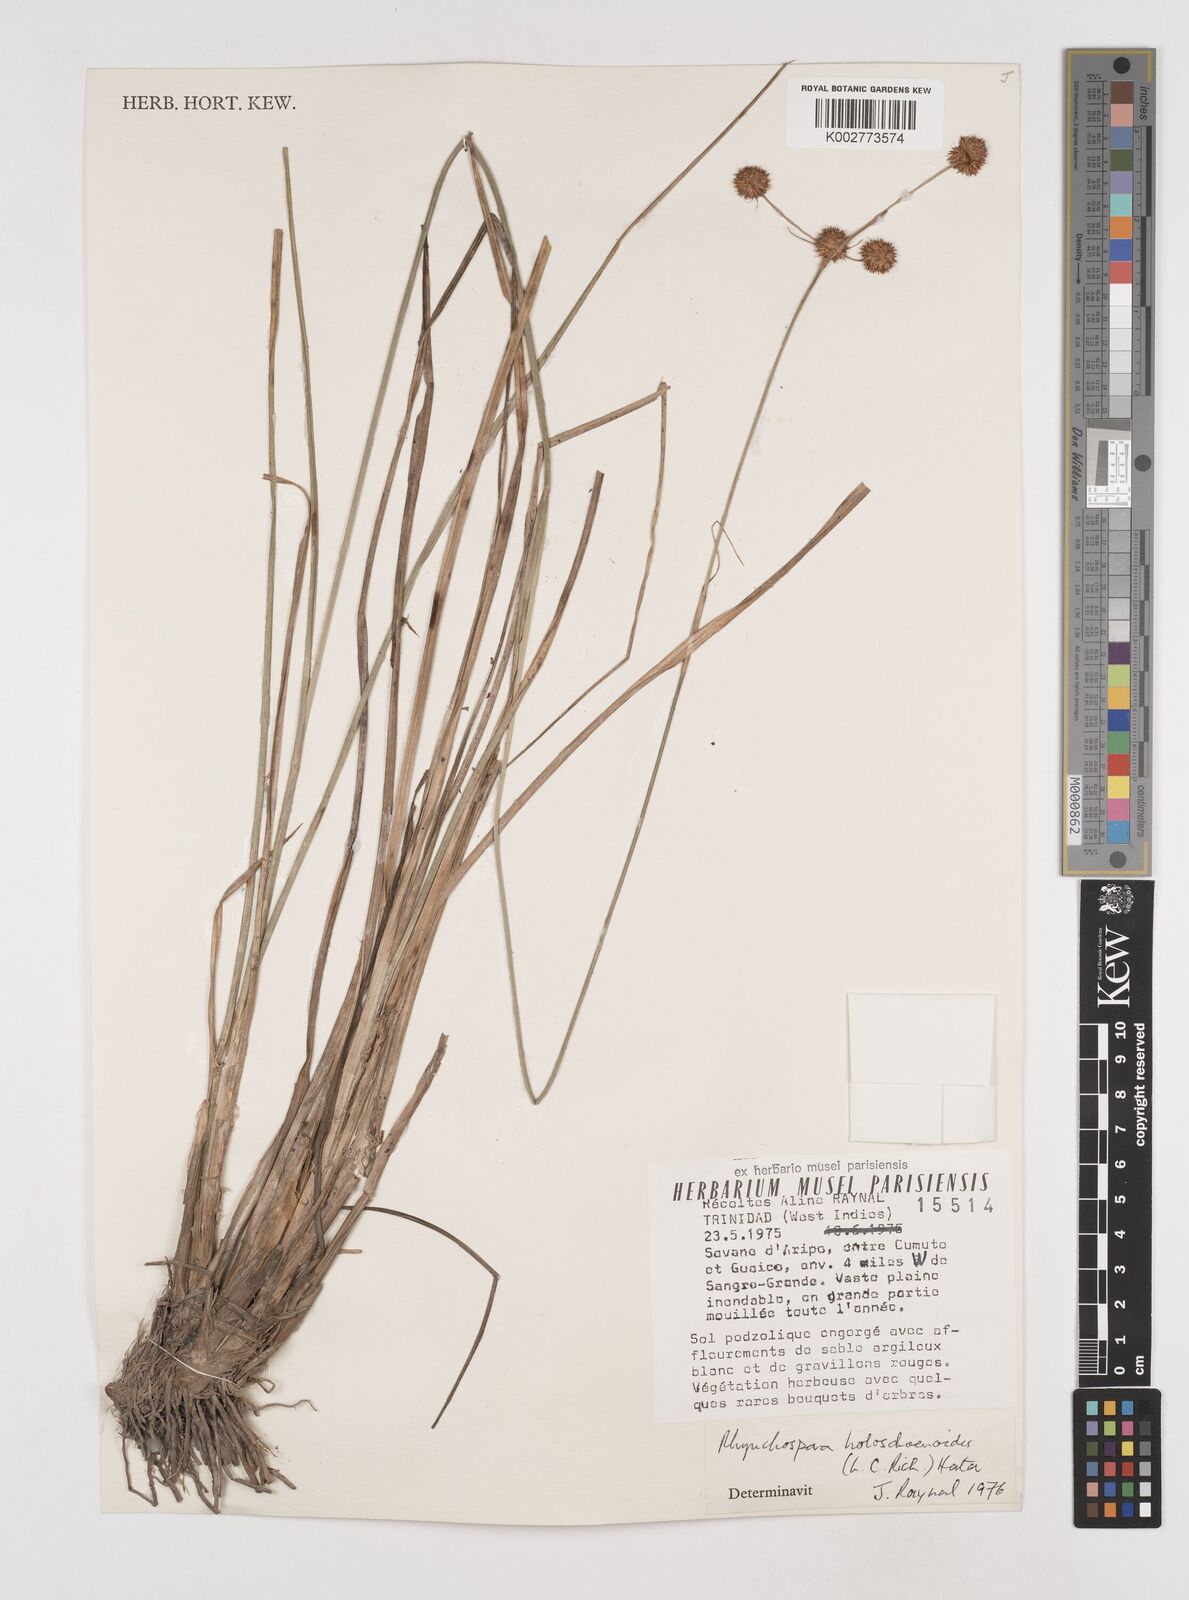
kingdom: Plantae
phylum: Tracheophyta
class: Liliopsida
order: Poales
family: Cyperaceae
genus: Rhynchospora
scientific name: Rhynchospora holoschoenoides
